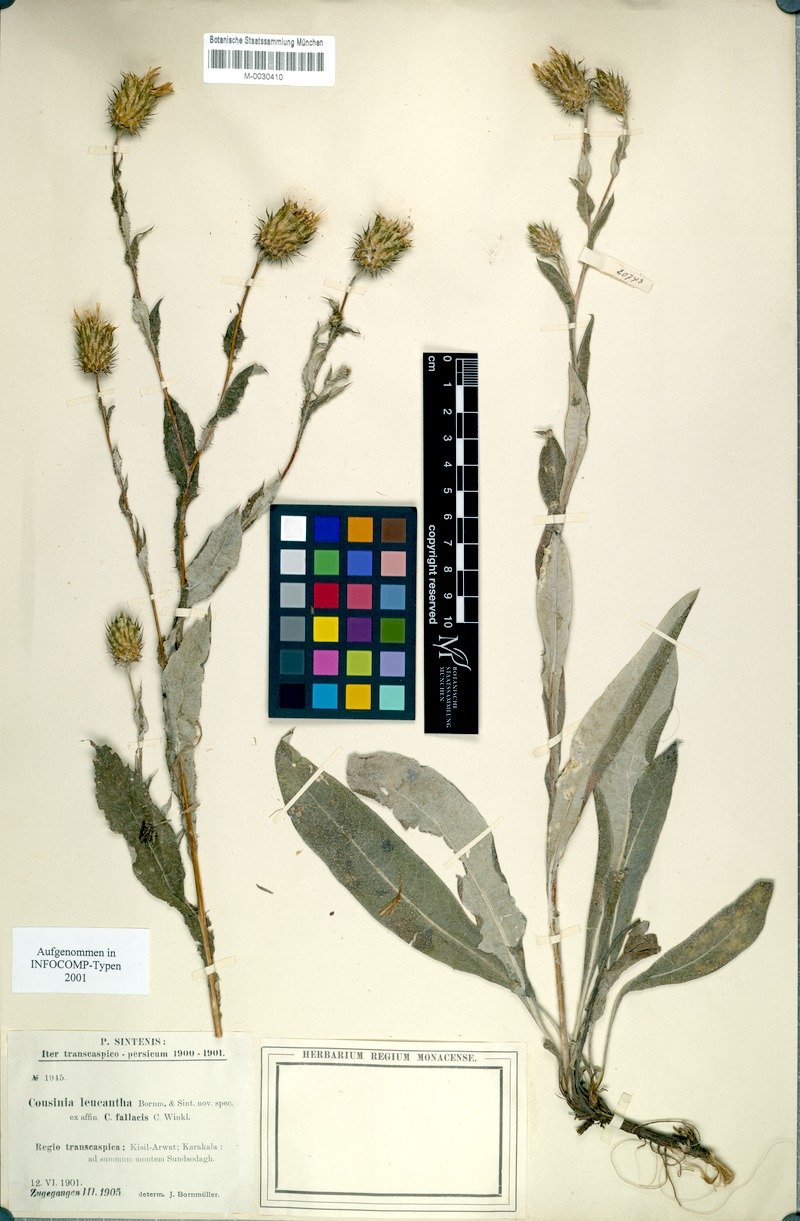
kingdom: Plantae
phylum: Tracheophyta
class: Magnoliopsida
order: Asterales
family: Asteraceae
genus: Cousinia
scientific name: Cousinia leucantha
